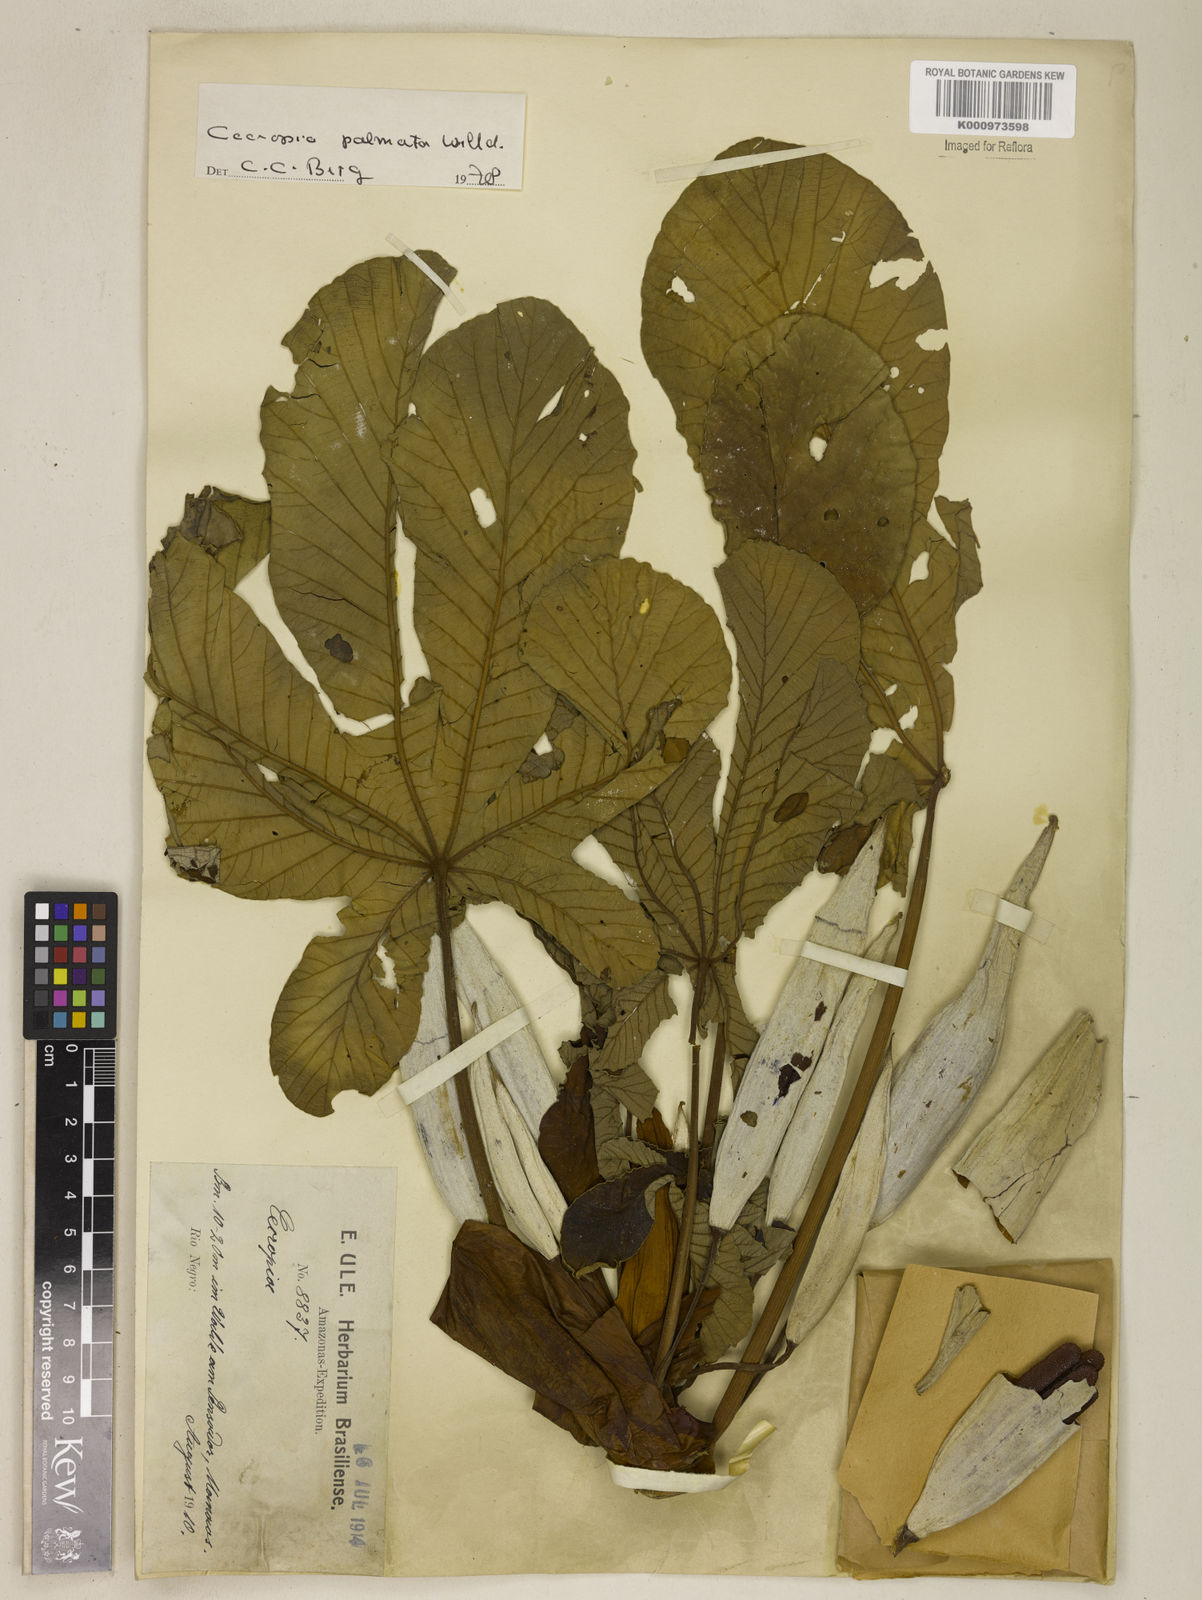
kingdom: Plantae
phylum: Tracheophyta
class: Magnoliopsida
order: Rosales
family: Urticaceae
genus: Cecropia
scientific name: Cecropia palmata
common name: Trumpet tree
